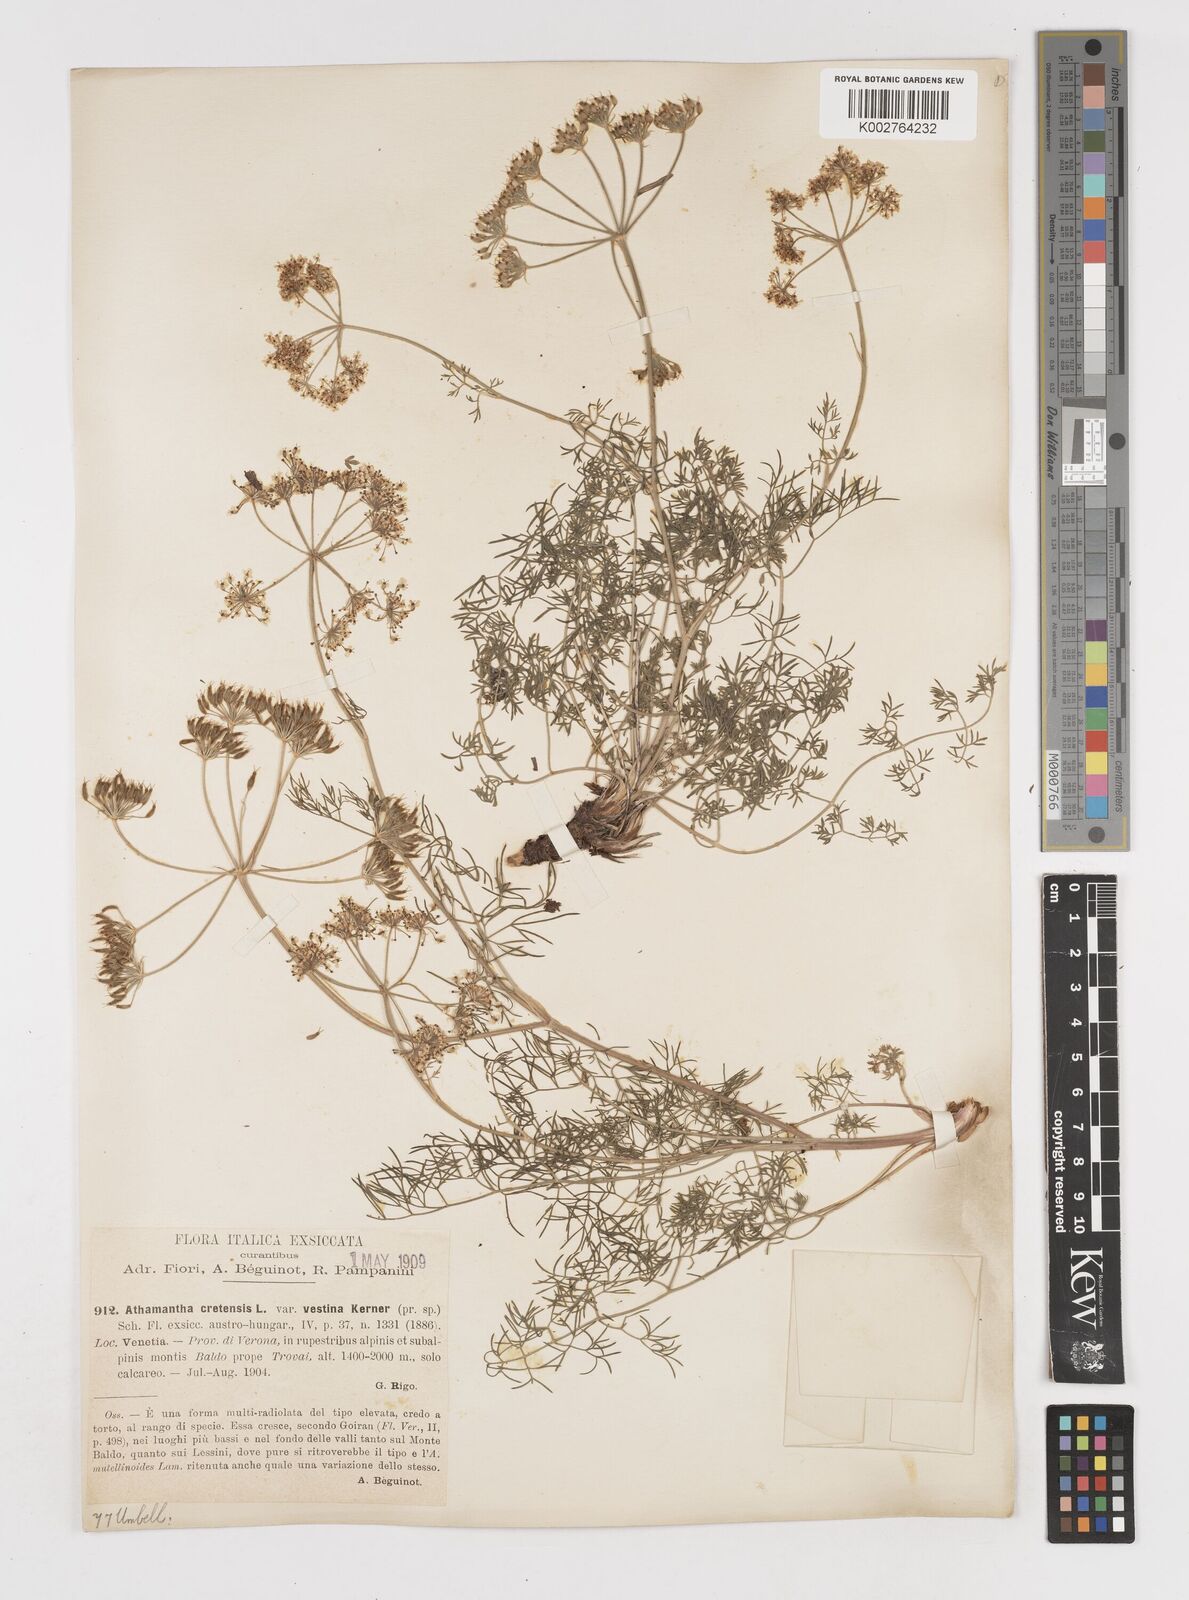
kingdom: Plantae
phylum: Tracheophyta
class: Magnoliopsida
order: Apiales
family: Apiaceae
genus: Athamanta
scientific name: Athamanta cretensis
